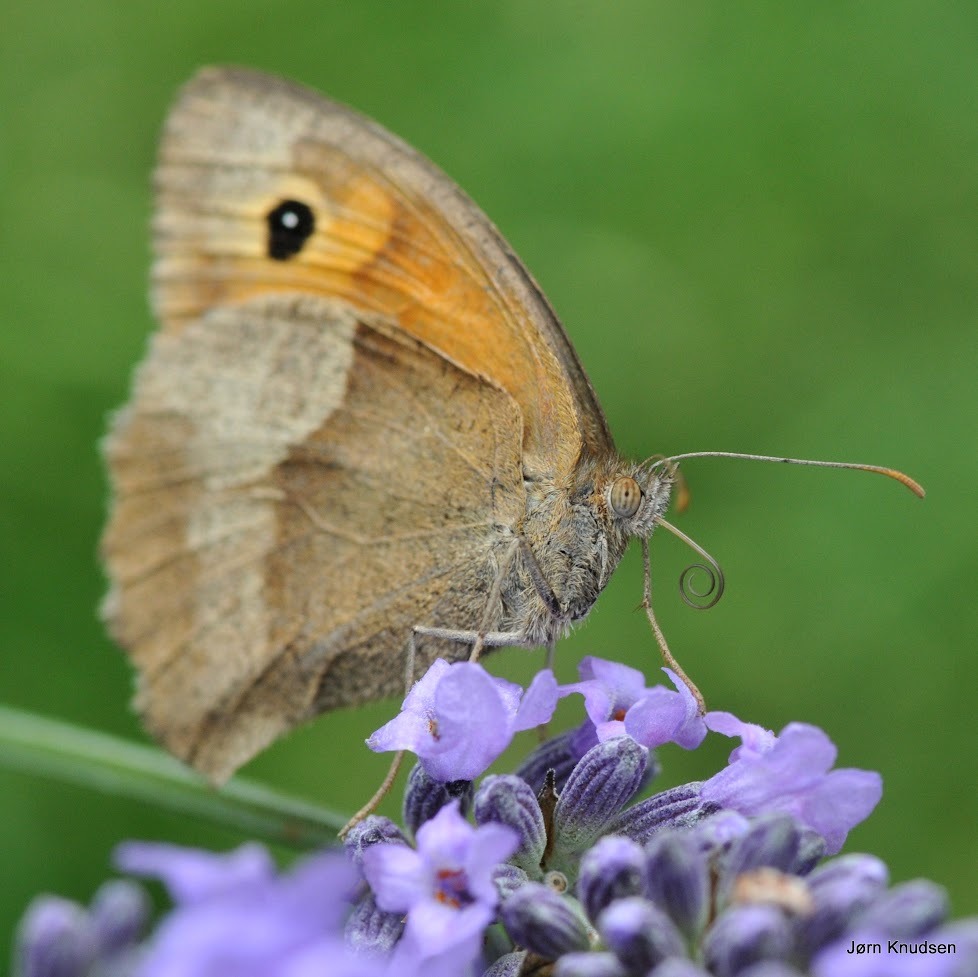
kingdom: Animalia
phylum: Arthropoda
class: Insecta
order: Lepidoptera
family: Nymphalidae
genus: Maniola
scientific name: Maniola jurtina
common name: Græsrandøje
